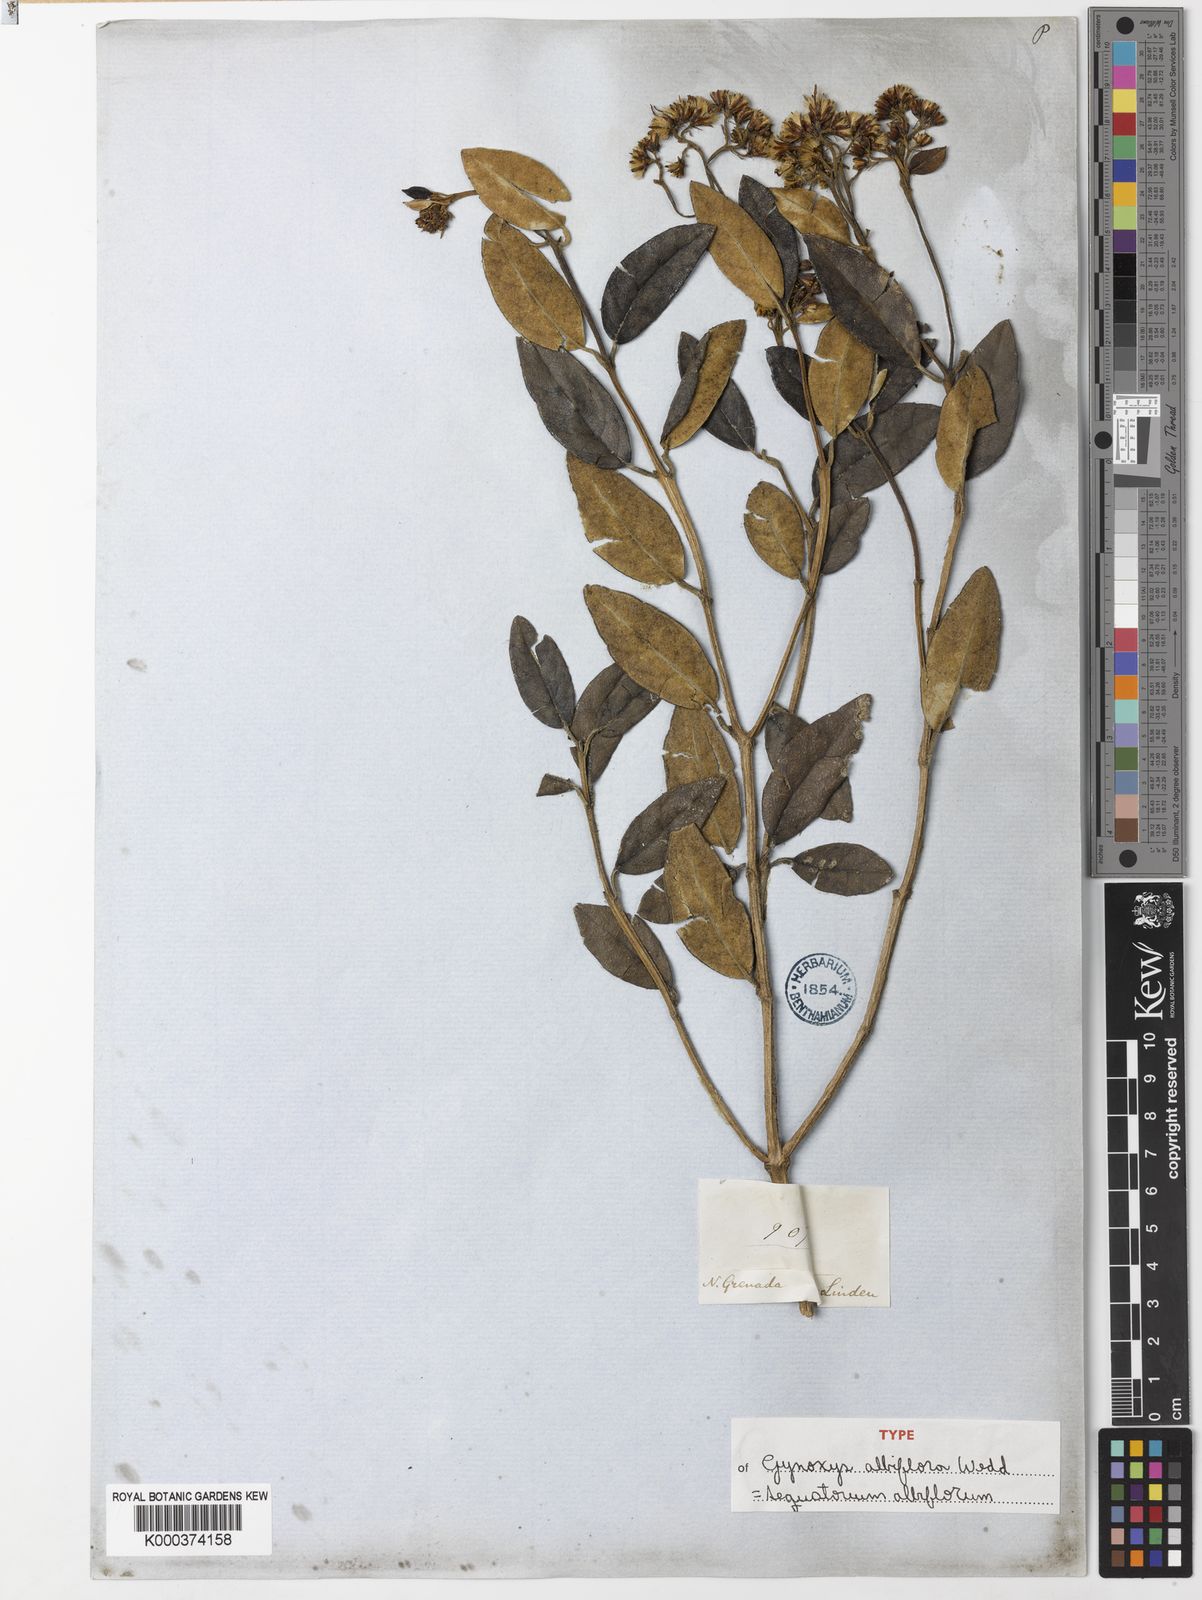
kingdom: Plantae
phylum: Tracheophyta
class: Magnoliopsida
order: Asterales
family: Asteraceae
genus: Aequatorium
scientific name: Aequatorium albiflorum
